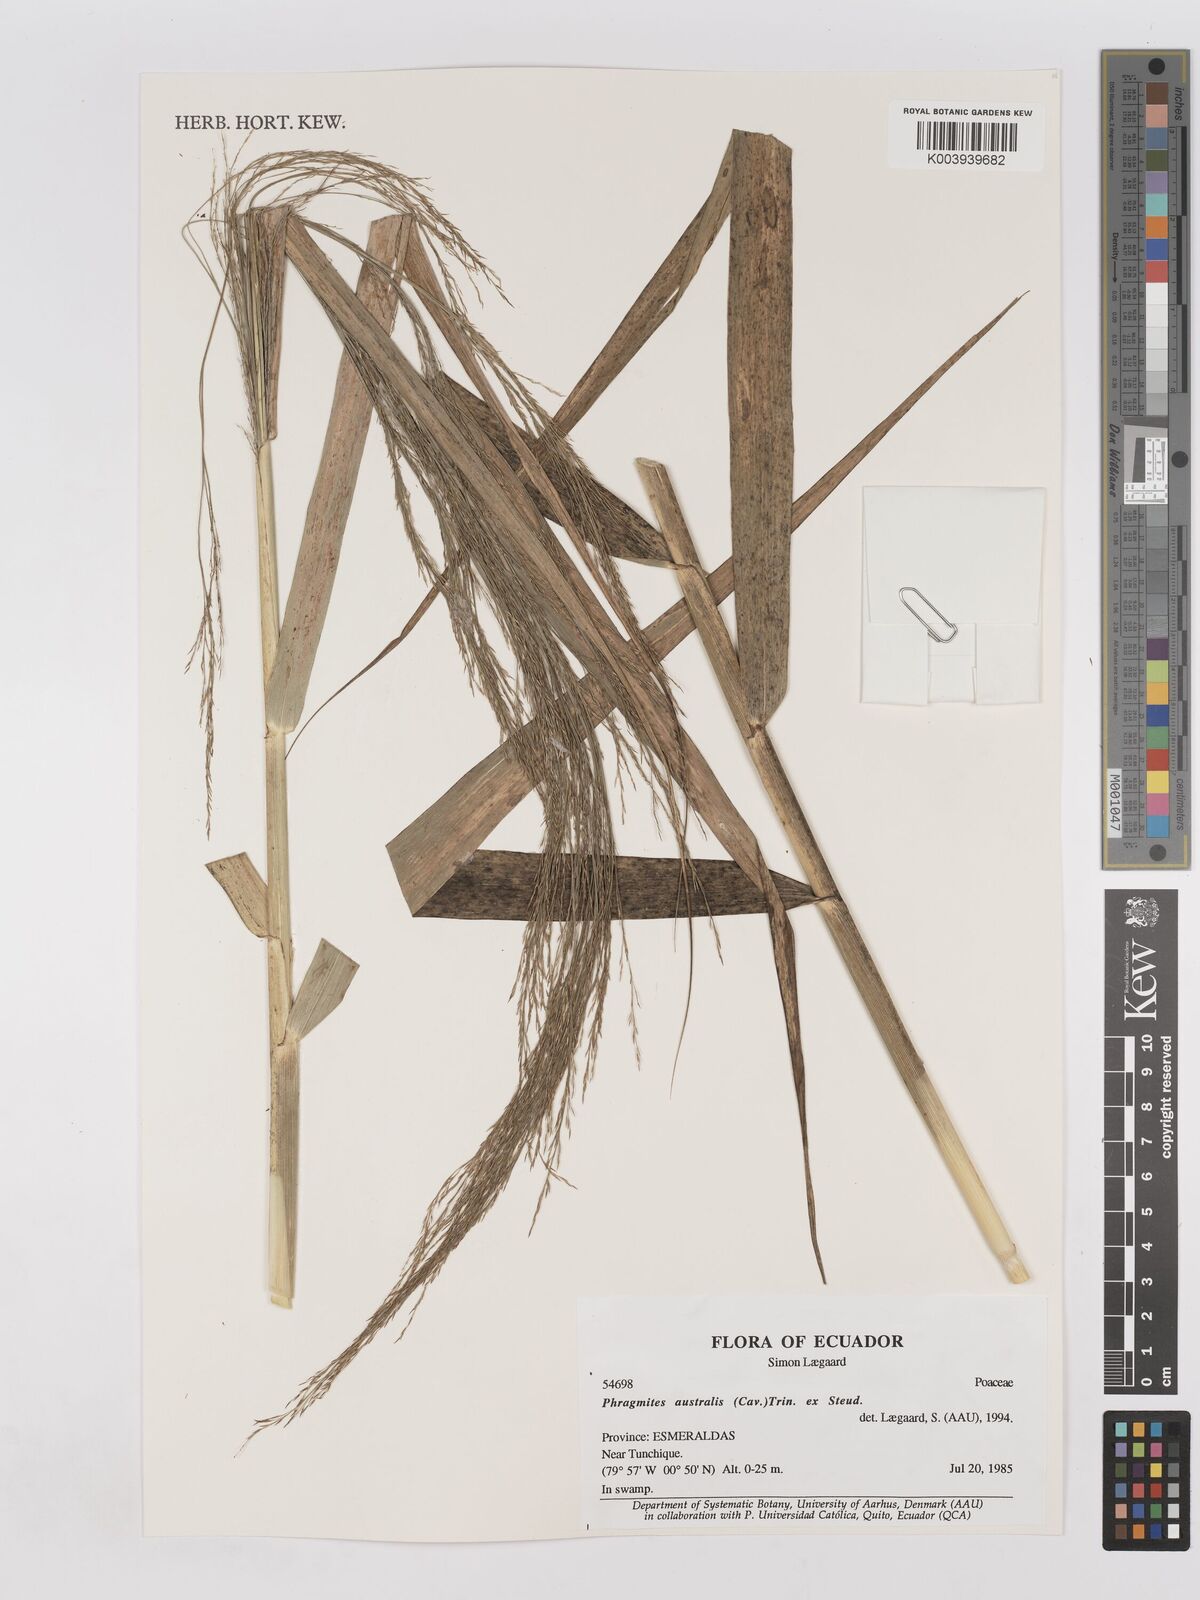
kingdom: Plantae
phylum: Tracheophyta
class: Liliopsida
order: Poales
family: Poaceae
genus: Phragmites
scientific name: Phragmites australis
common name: Common reed
